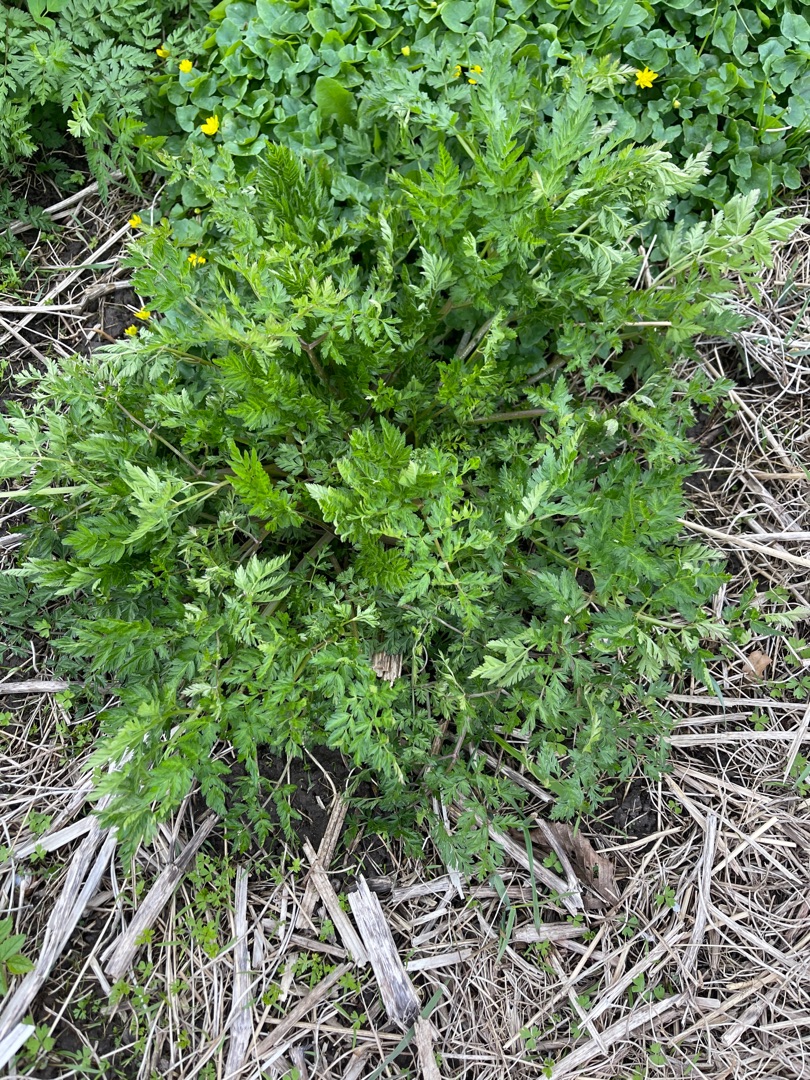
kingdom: Plantae
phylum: Tracheophyta
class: Magnoliopsida
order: Apiales
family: Apiaceae
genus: Anthriscus
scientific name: Anthriscus sylvestris
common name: Vild kørvel
